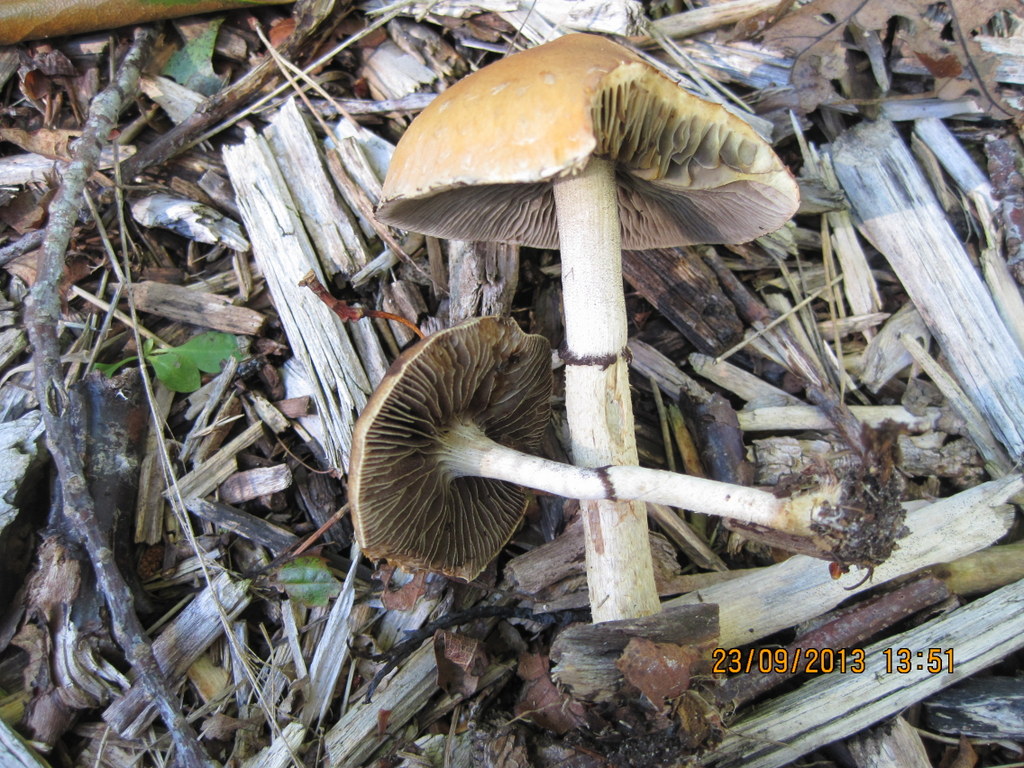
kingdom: Fungi
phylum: Basidiomycota
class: Agaricomycetes
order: Agaricales
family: Strophariaceae
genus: Leratiomyces
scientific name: Leratiomyces squamosus
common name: skællet bredblad
